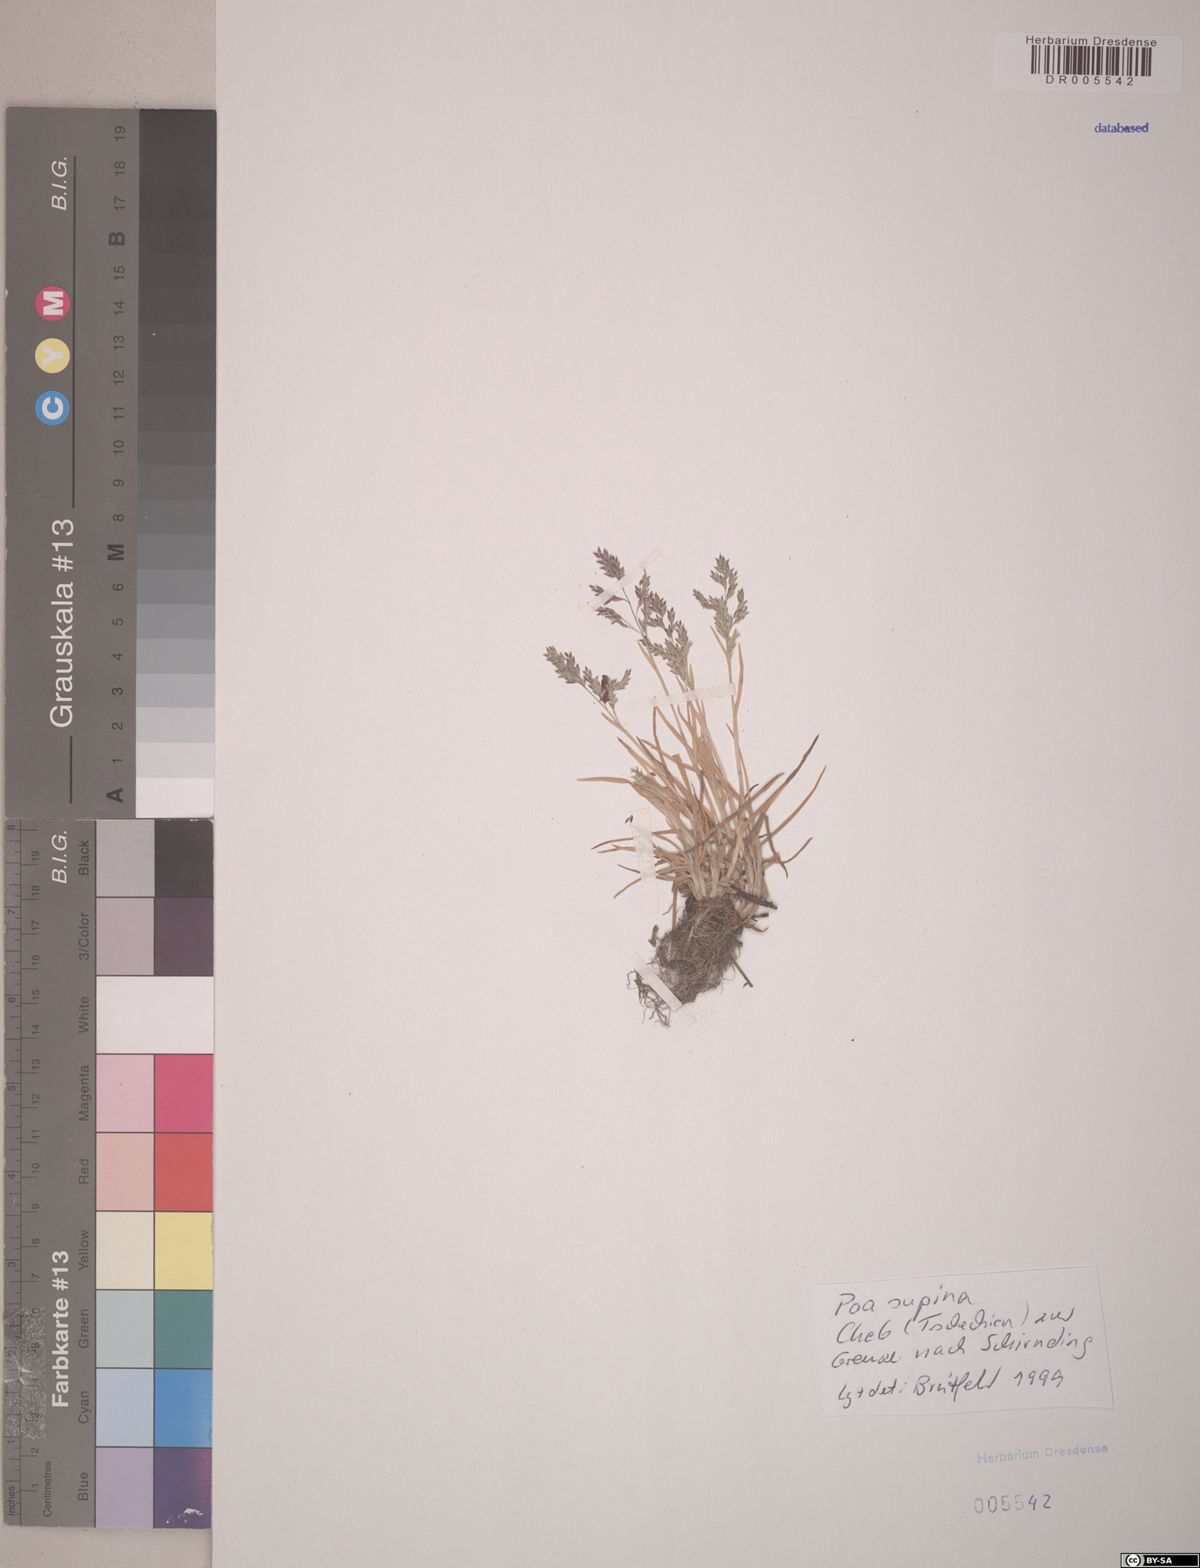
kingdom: Plantae
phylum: Tracheophyta
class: Liliopsida
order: Poales
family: Poaceae
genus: Poa
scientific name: Poa supina
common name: Supina bluegrass
